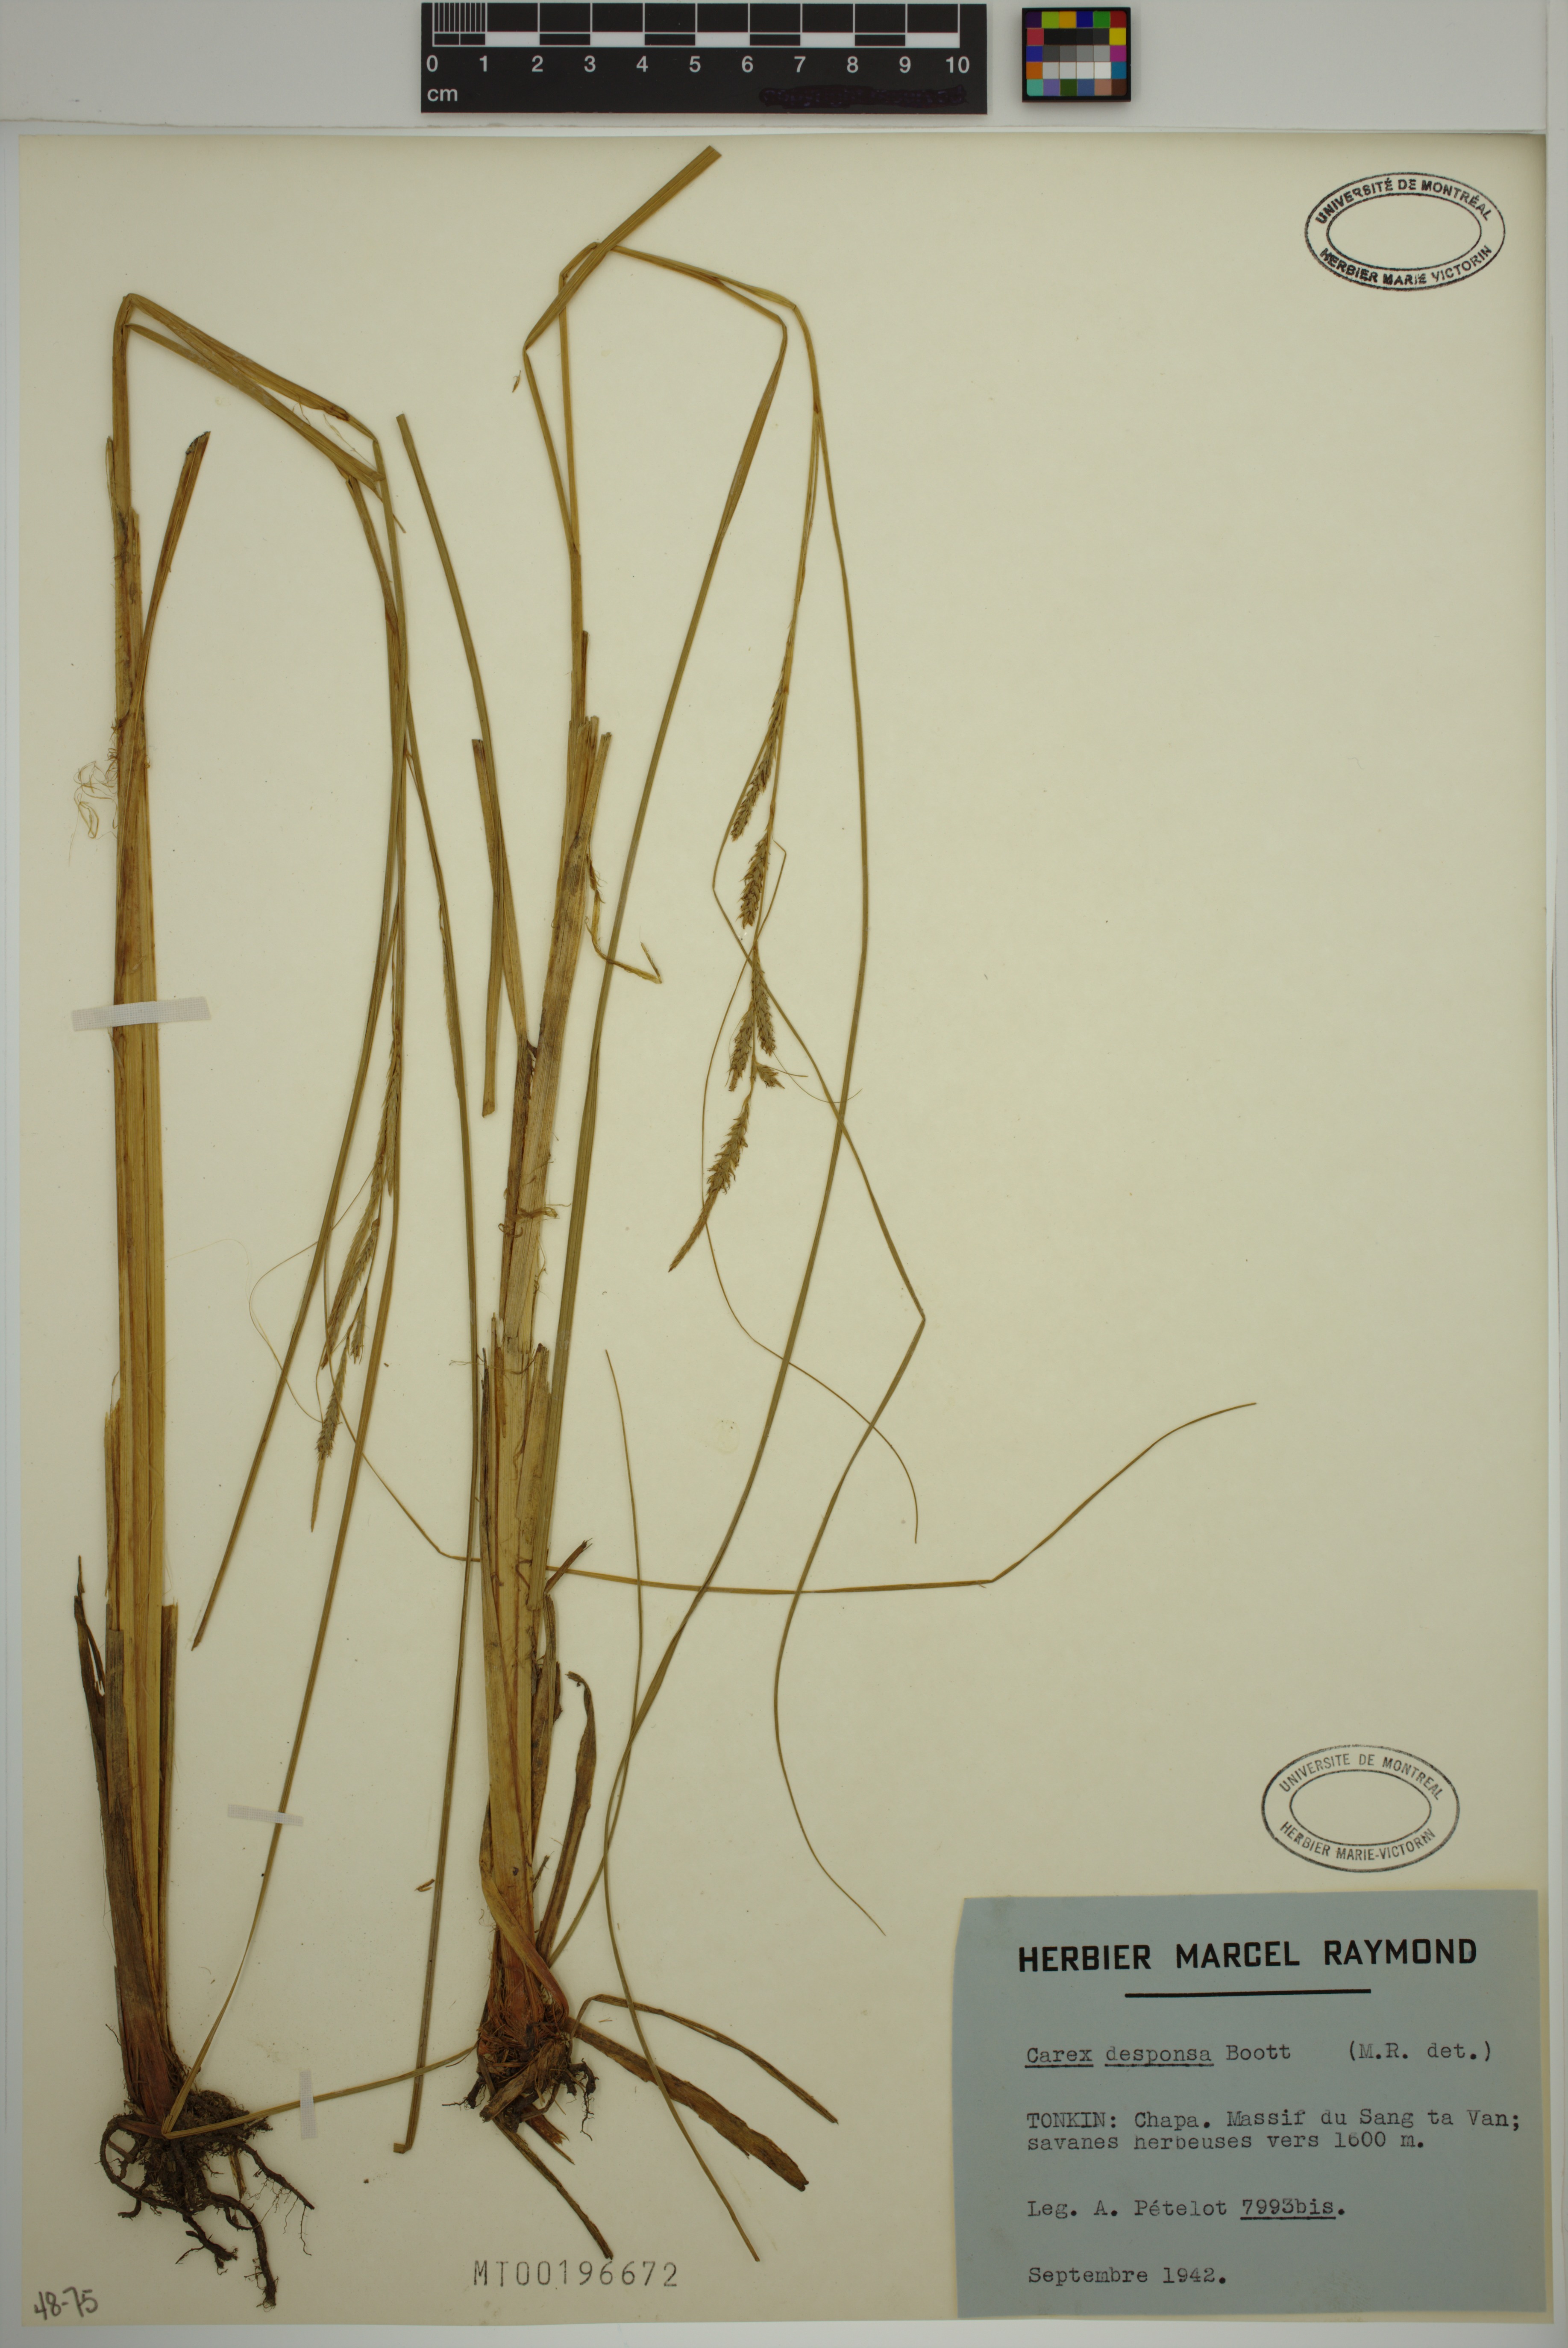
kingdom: Plantae
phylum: Tracheophyta
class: Liliopsida
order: Poales
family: Cyperaceae
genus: Carex
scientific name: Carex desponsa
